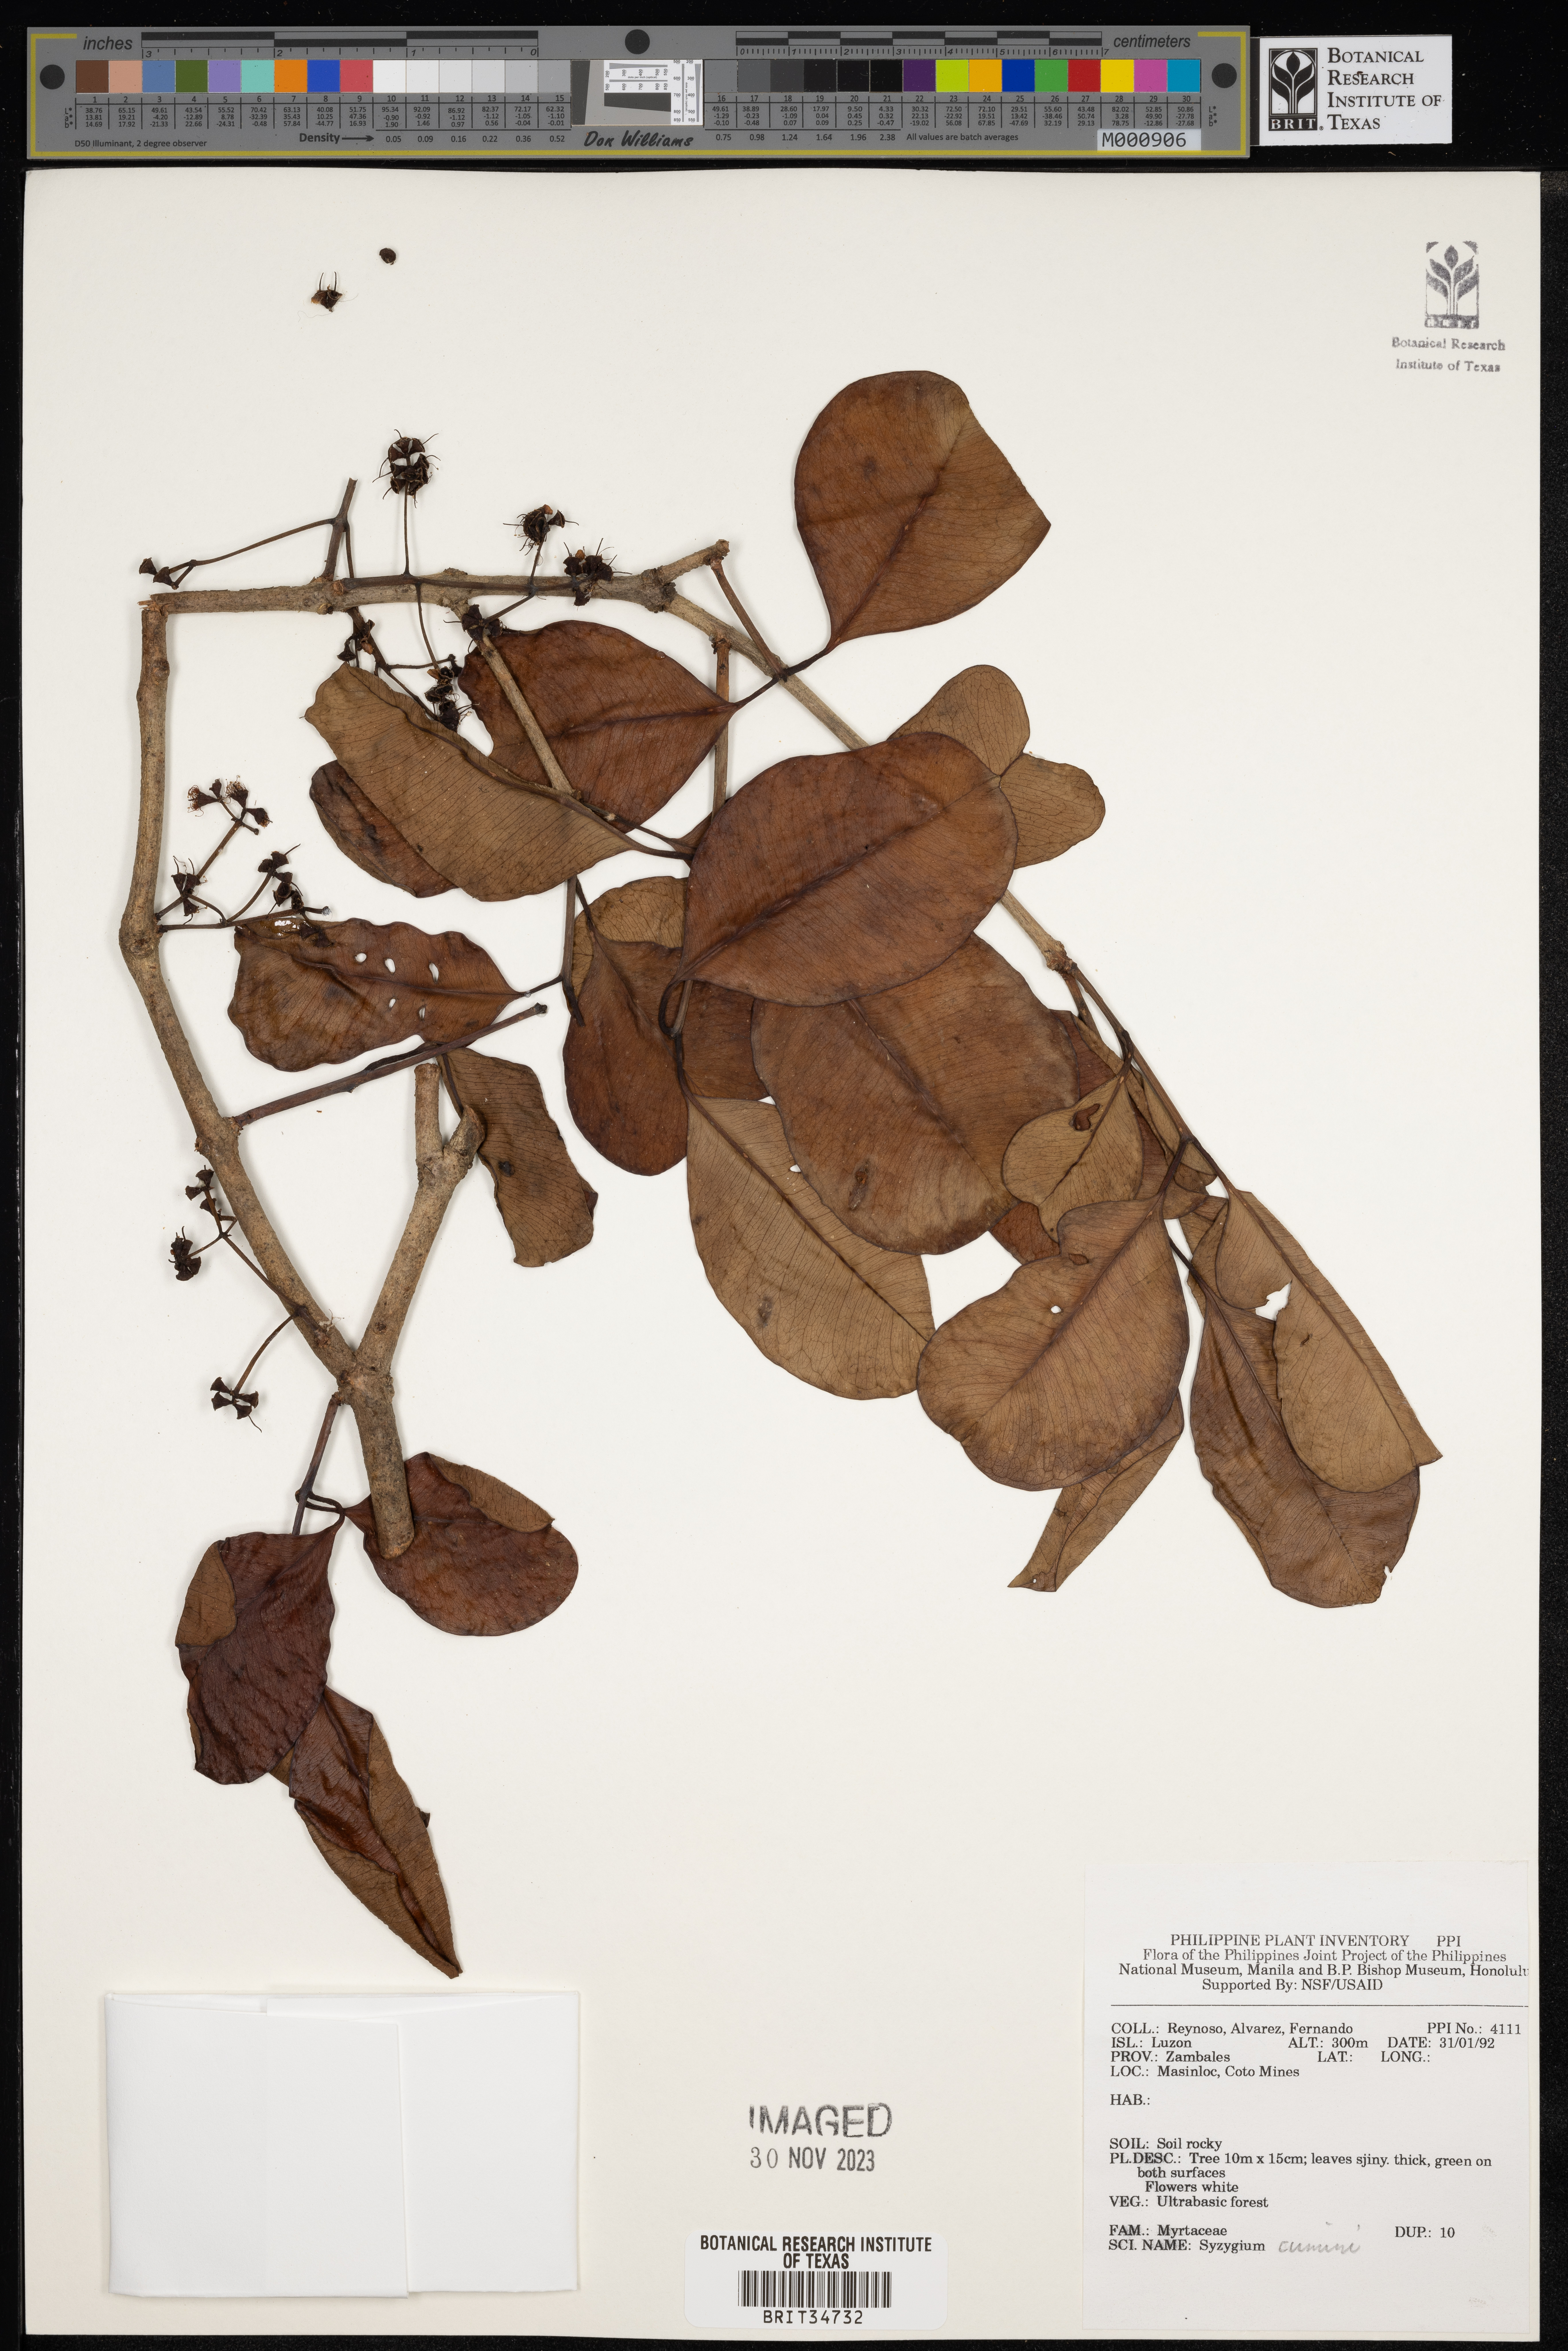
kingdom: Plantae
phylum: Tracheophyta
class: Magnoliopsida
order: Myrtales
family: Myrtaceae
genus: Syzygium
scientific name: Syzygium cumini
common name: Java plum
